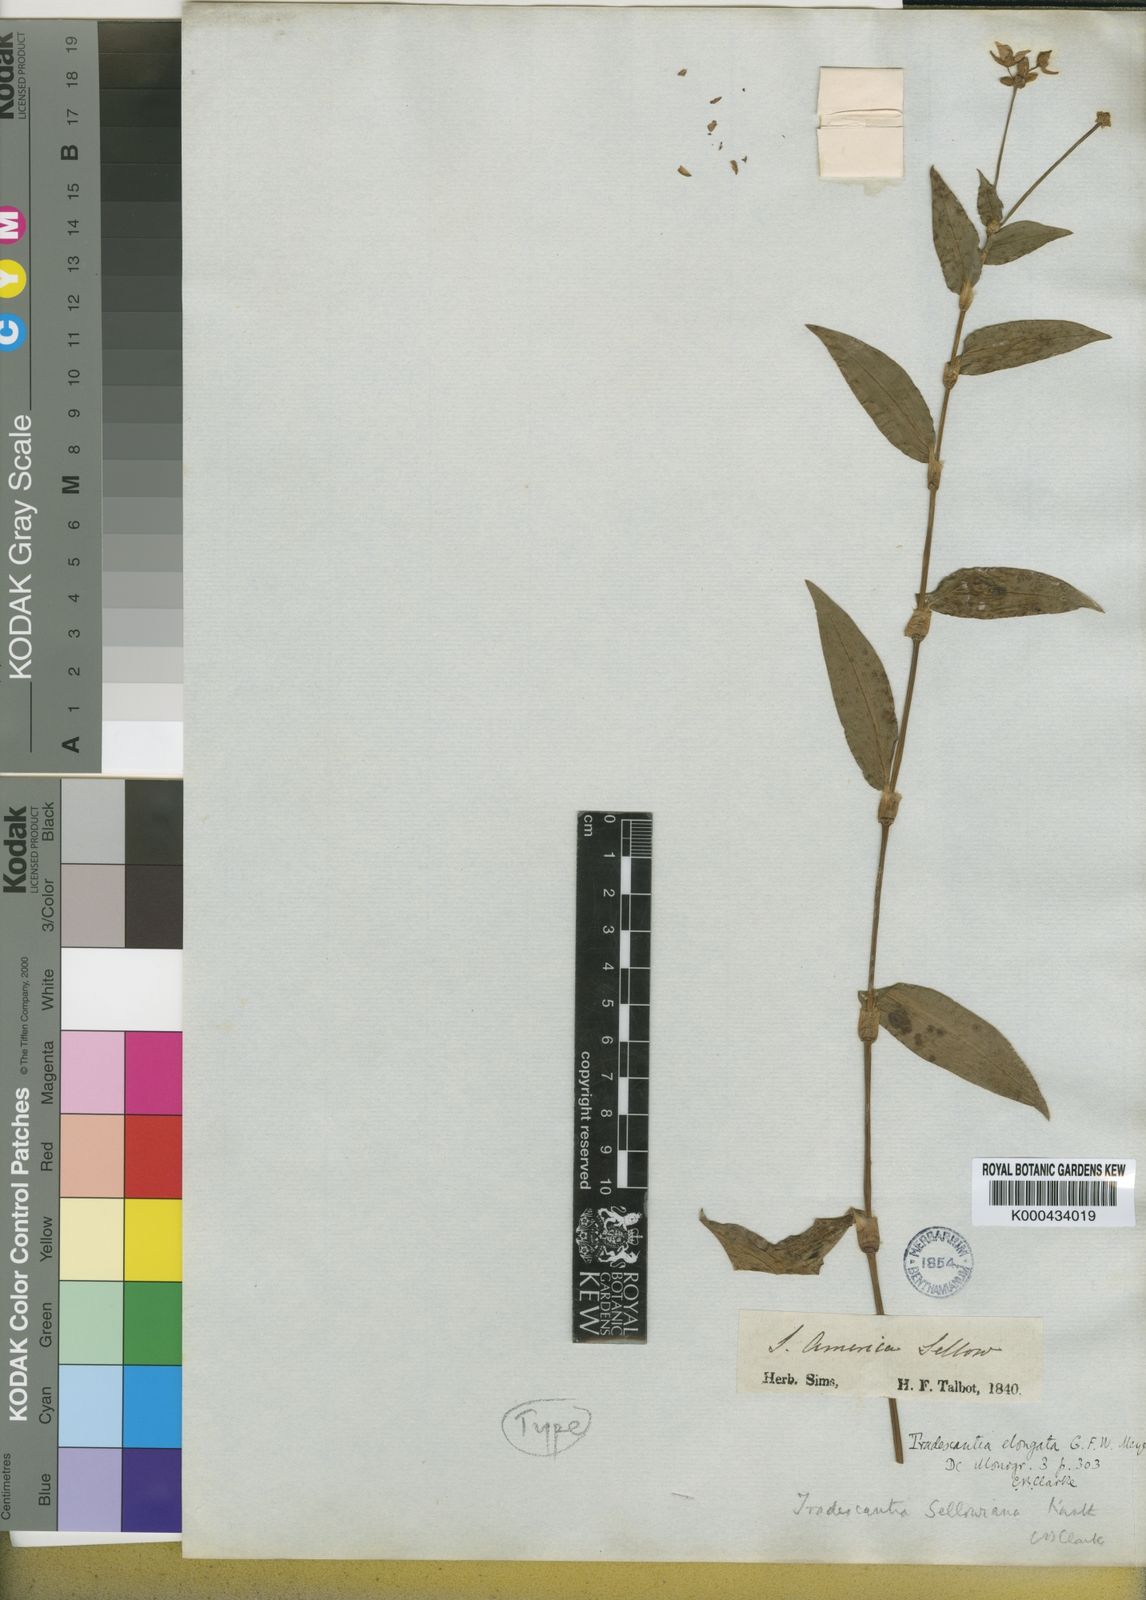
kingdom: Plantae
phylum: Tracheophyta
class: Liliopsida
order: Commelinales
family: Commelinaceae
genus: Callisia
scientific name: Callisia diuretica
